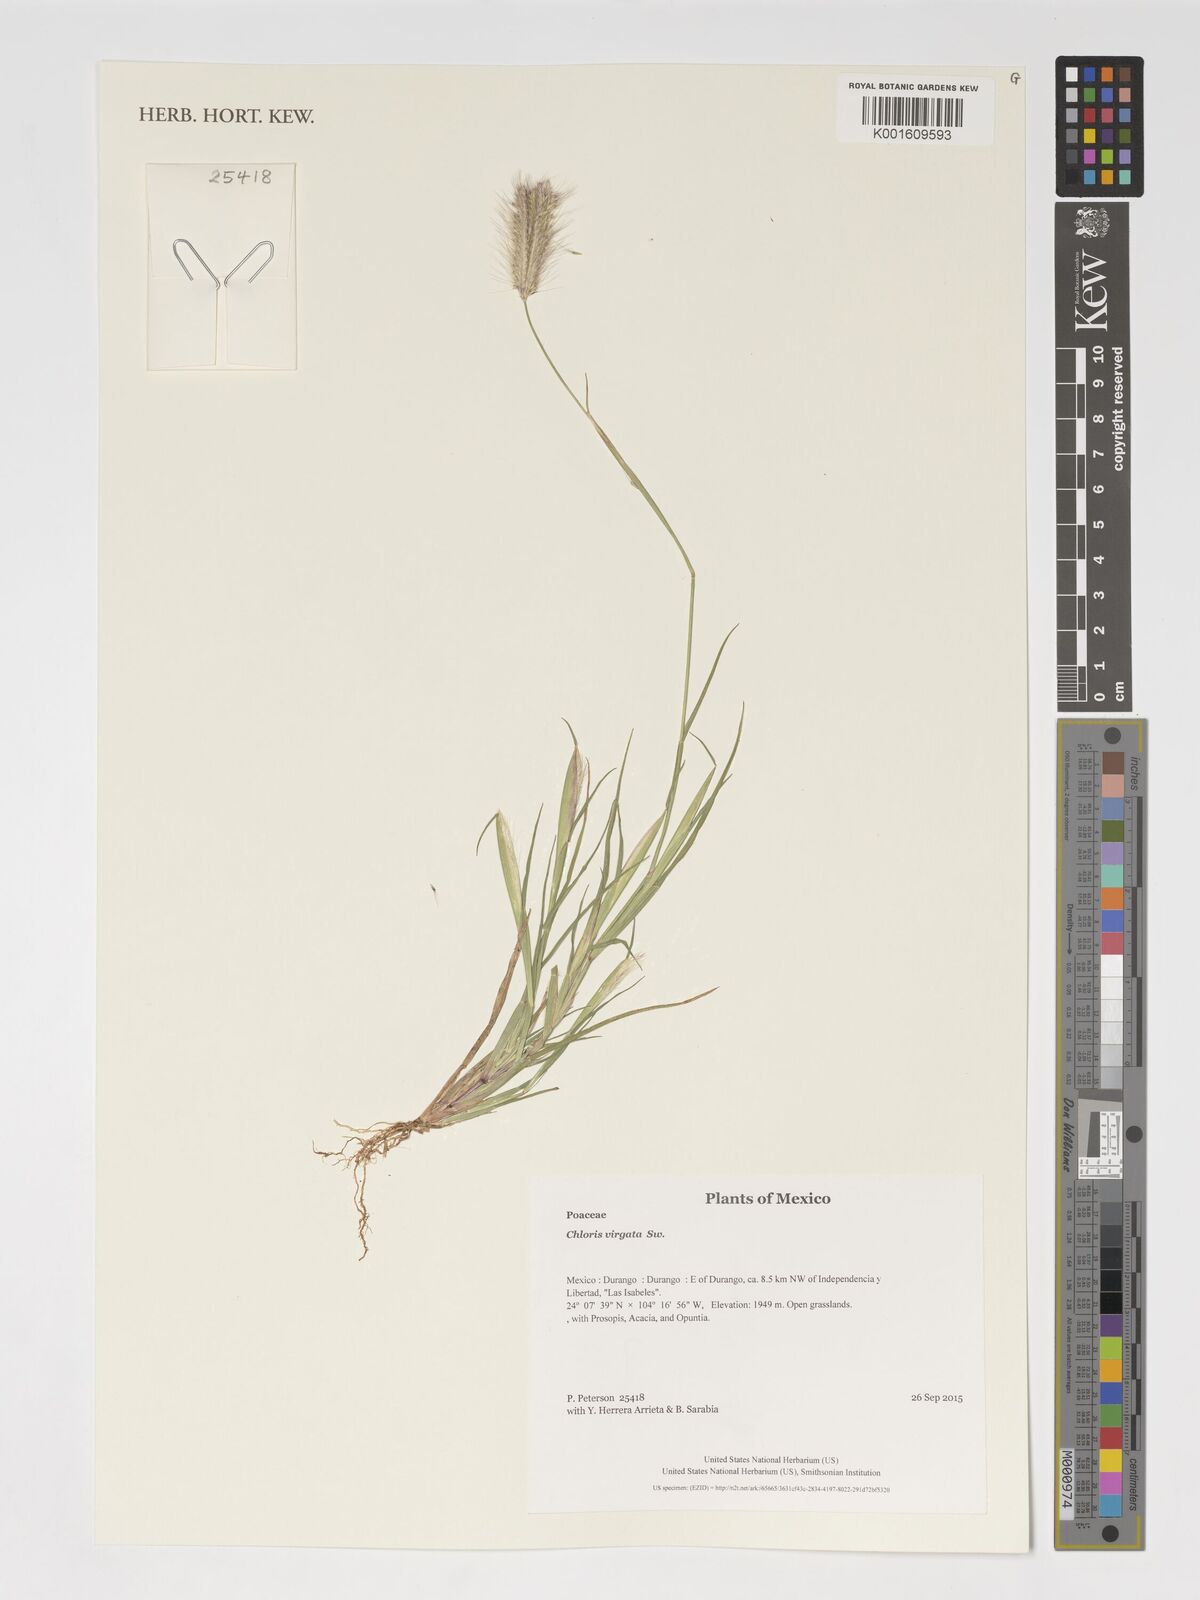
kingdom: Plantae
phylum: Tracheophyta
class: Liliopsida
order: Poales
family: Poaceae
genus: Chloris
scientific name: Chloris virgata
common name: Feathery rhodes-grass
